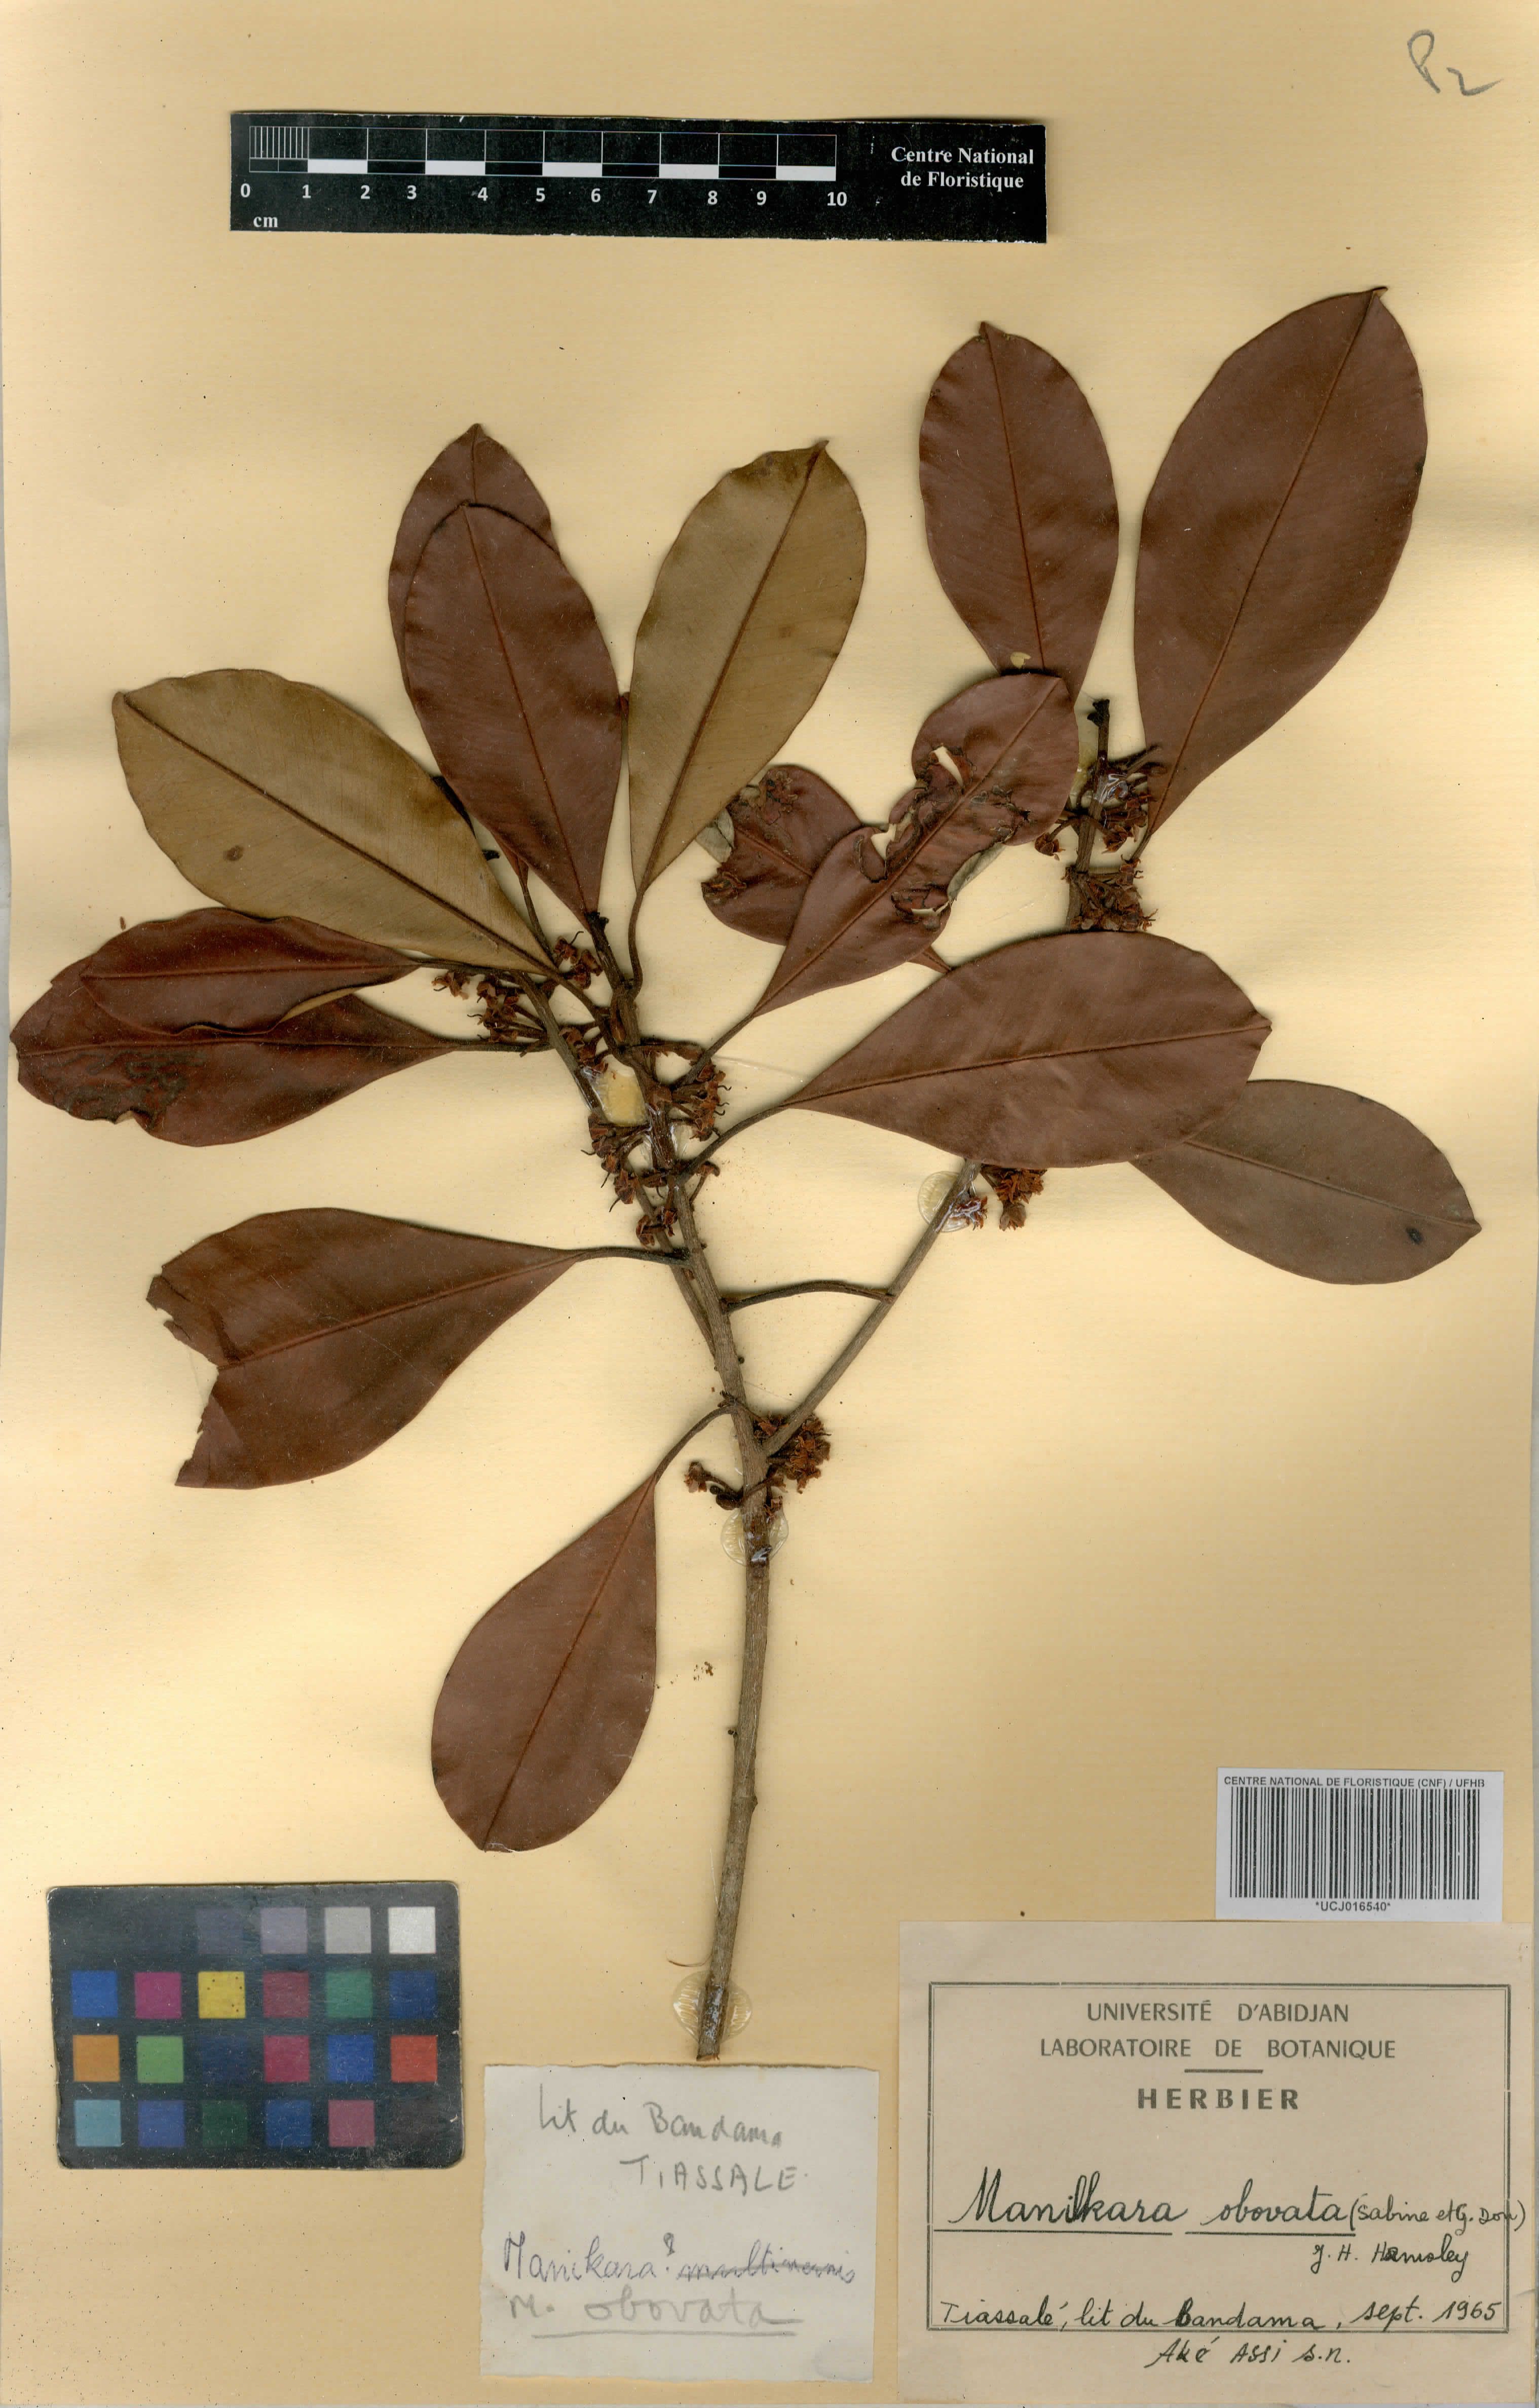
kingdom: Plantae
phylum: Tracheophyta
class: Magnoliopsida
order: Ericales
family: Sapotaceae
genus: Manilkara
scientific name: Manilkara obovata
